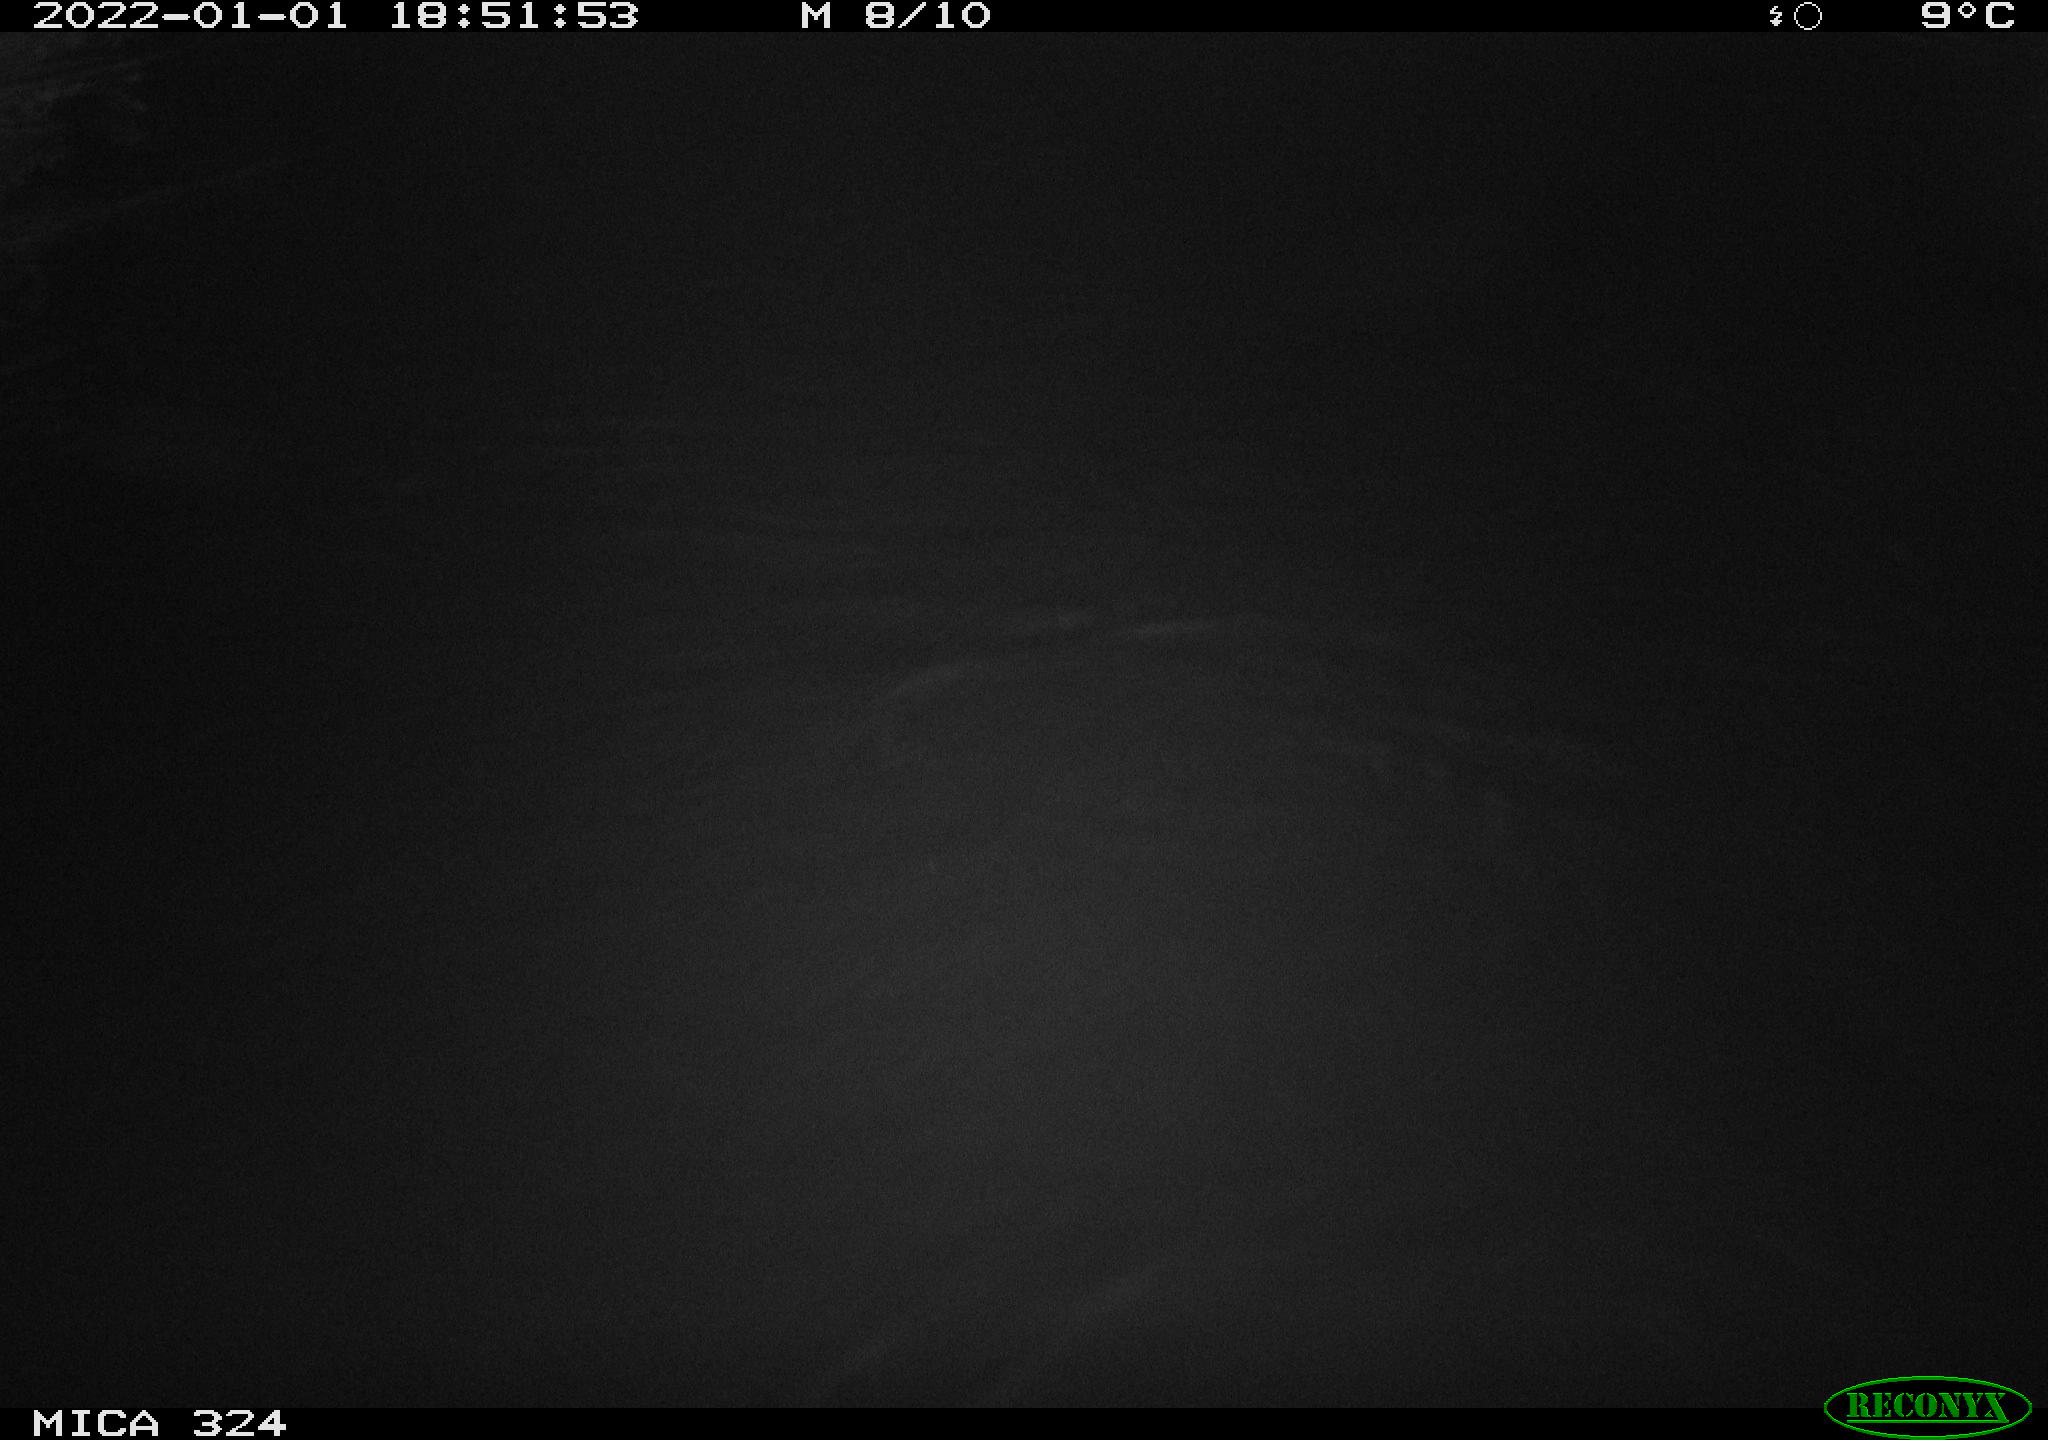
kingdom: Animalia
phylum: Chordata
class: Mammalia
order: Rodentia
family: Cricetidae
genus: Ondatra
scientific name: Ondatra zibethicus
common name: Muskrat
